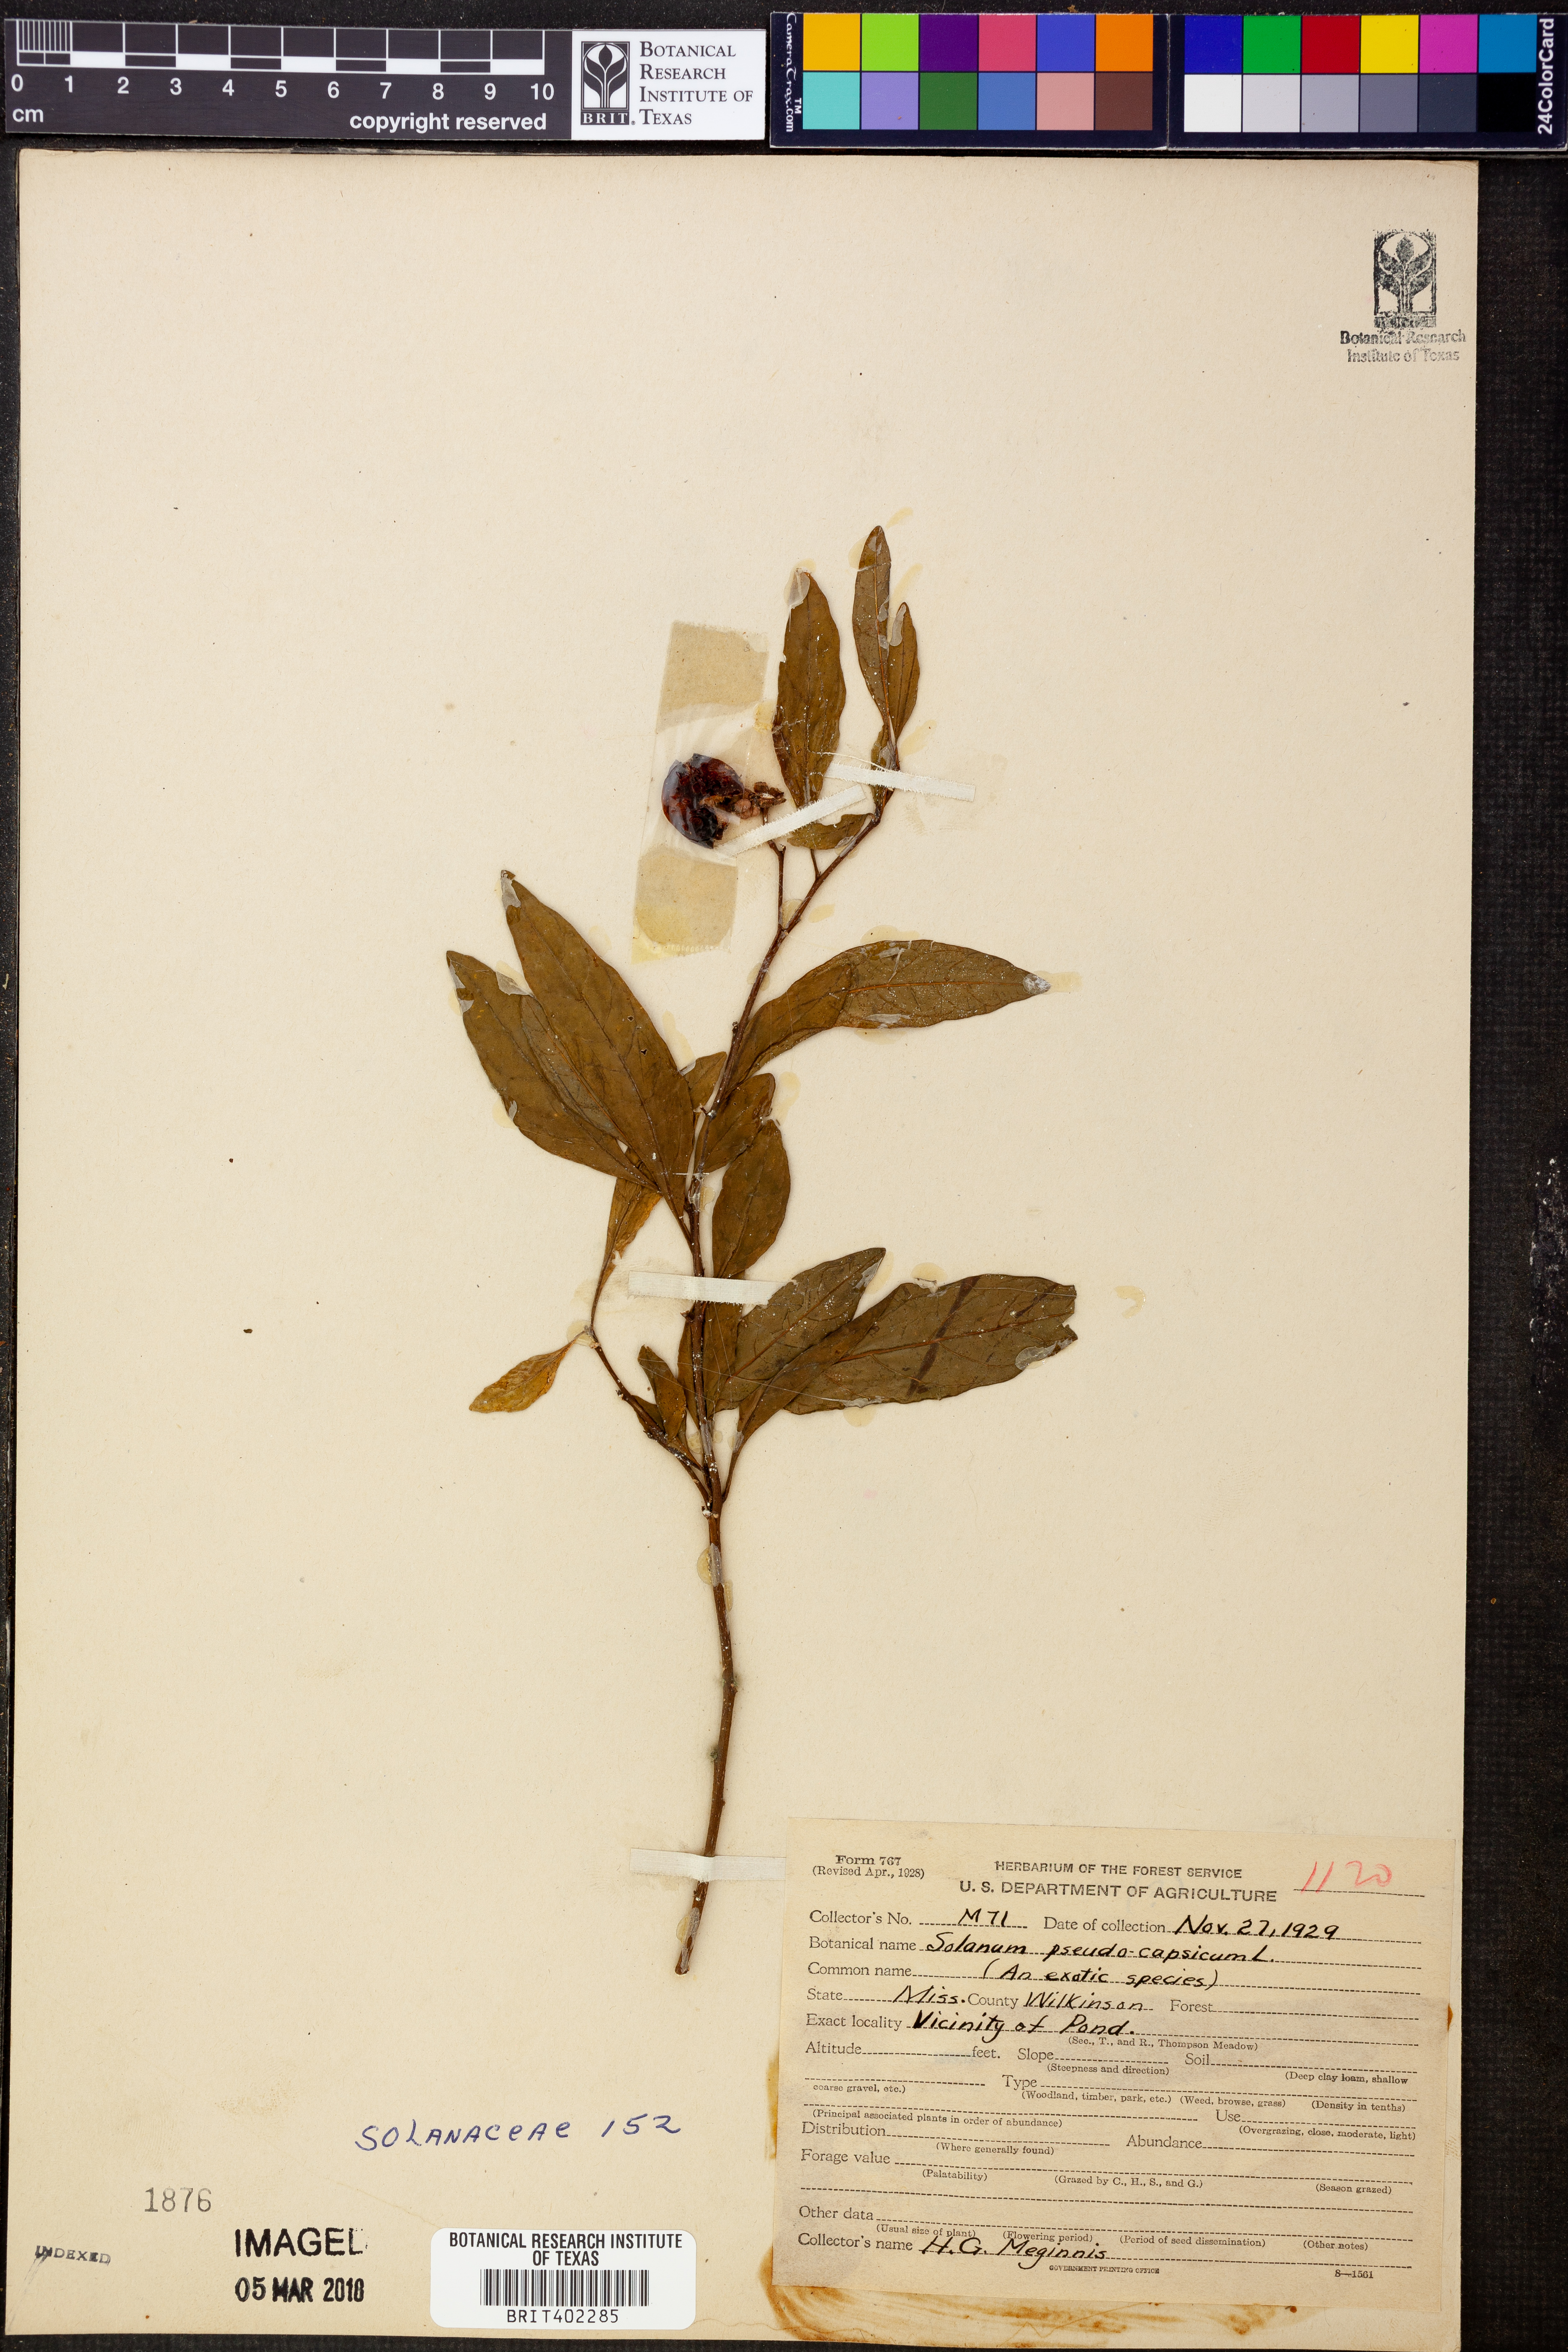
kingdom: Plantae
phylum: Tracheophyta
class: Magnoliopsida
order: Solanales
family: Solanaceae
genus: Solanum
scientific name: Solanum pseudocapsicum
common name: Jerusalem cherry
